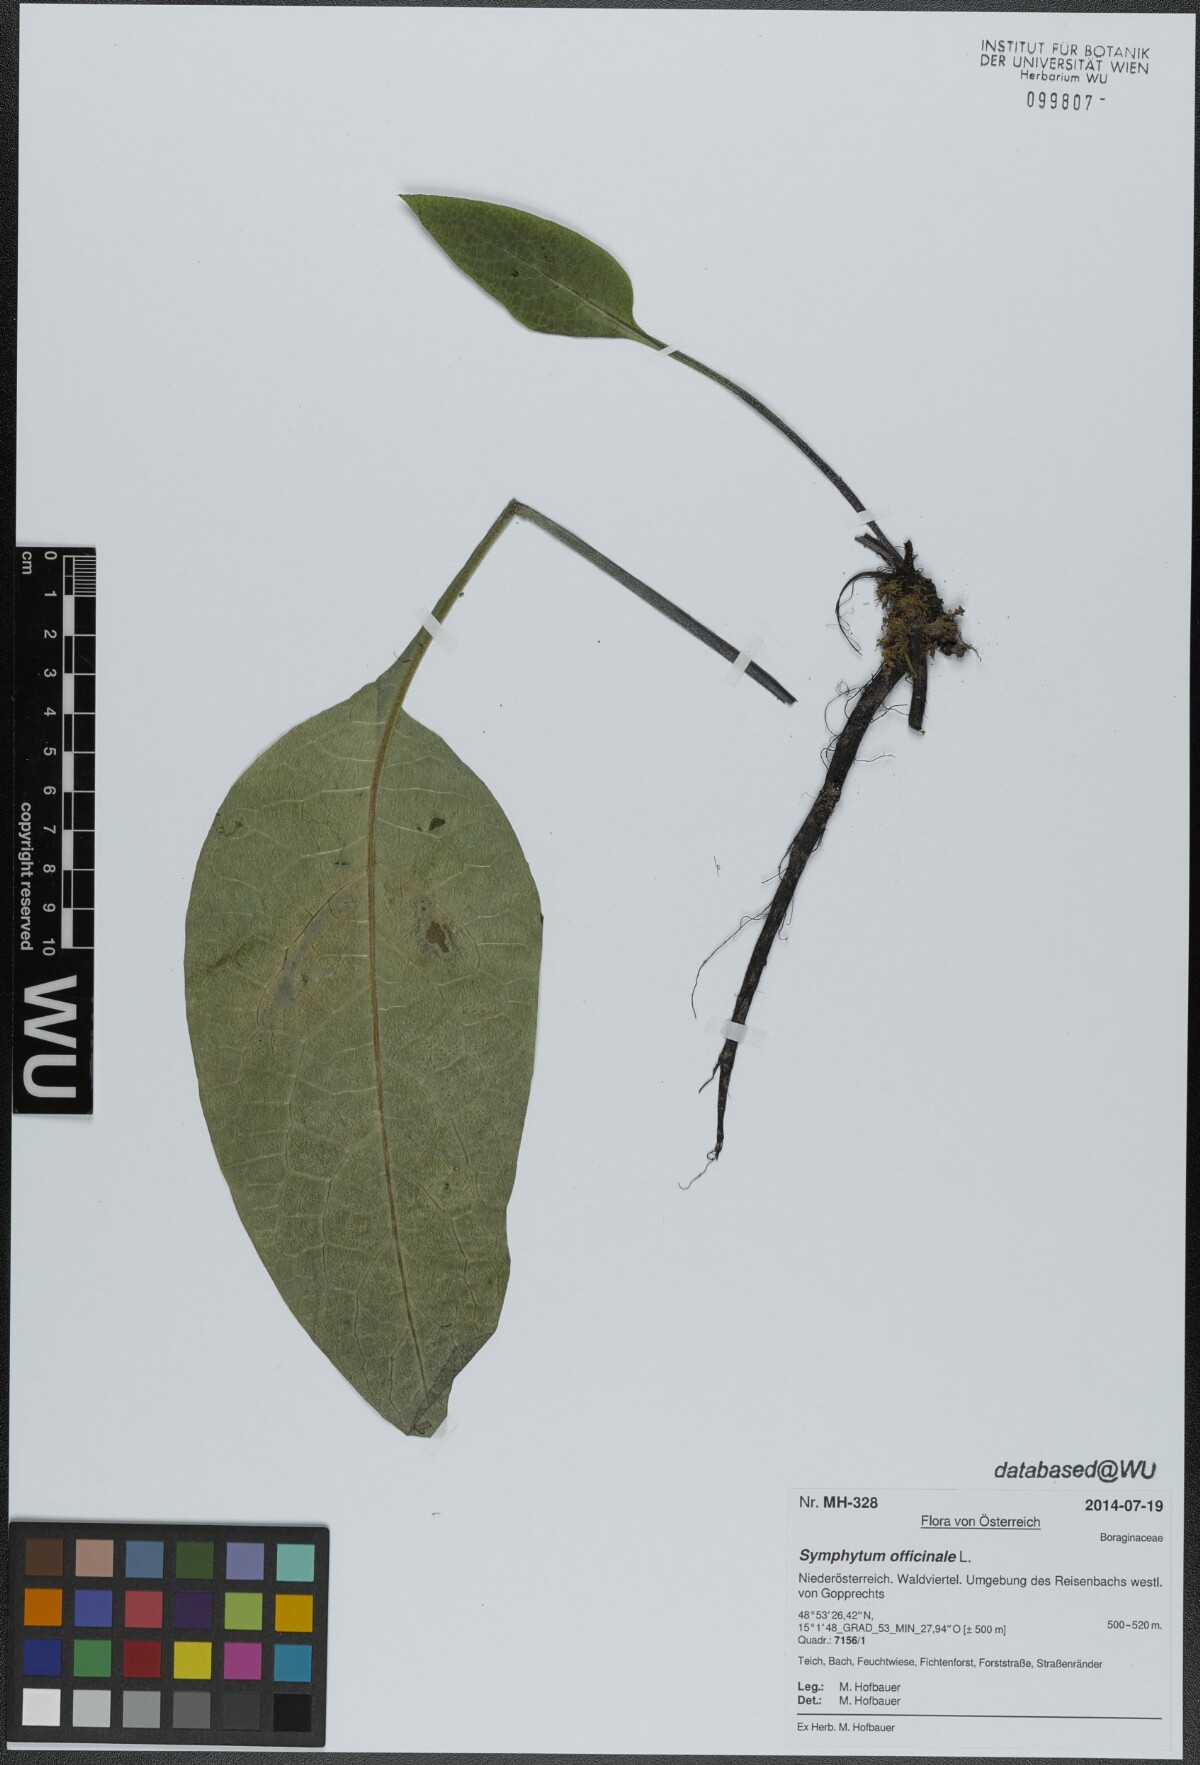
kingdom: Plantae
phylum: Tracheophyta
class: Magnoliopsida
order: Boraginales
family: Boraginaceae
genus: Symphytum
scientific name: Symphytum officinale
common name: Common comfrey
